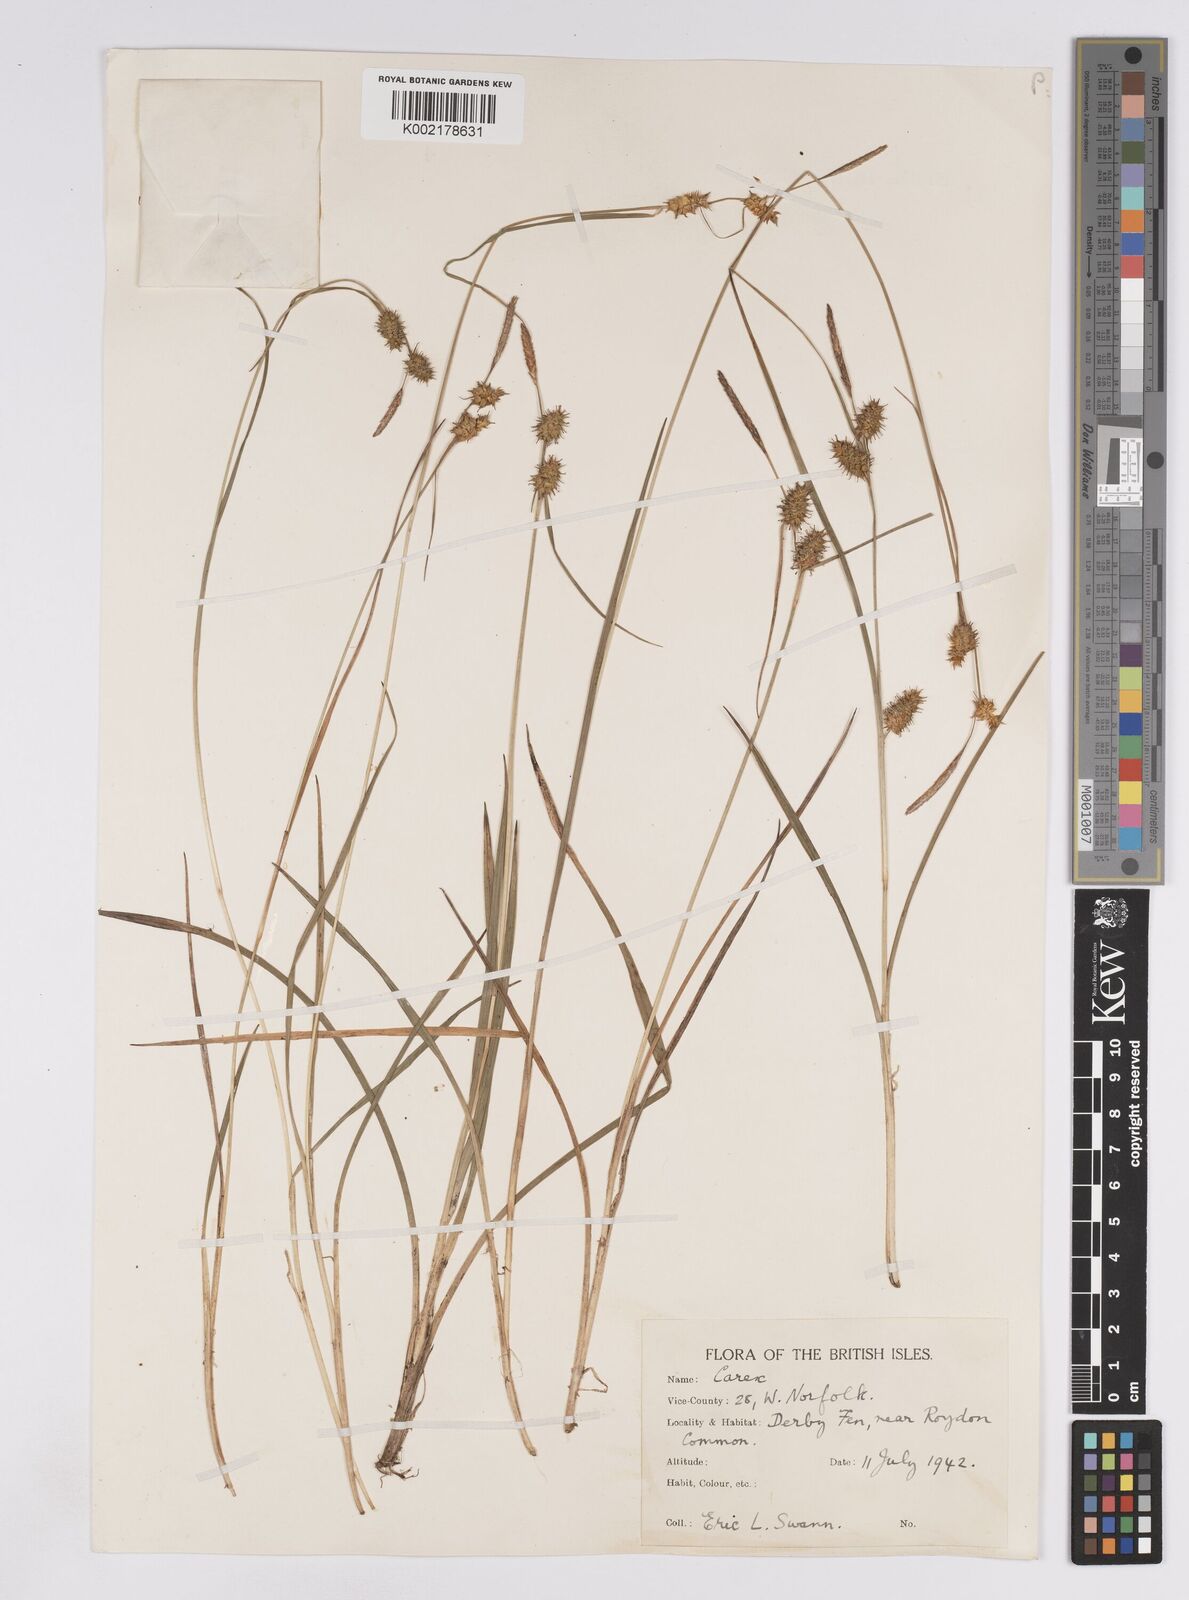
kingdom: Plantae
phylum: Tracheophyta
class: Liliopsida
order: Poales
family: Cyperaceae
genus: Carex
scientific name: Carex lepidocarpa
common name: Long-stalked yellow-sedge
